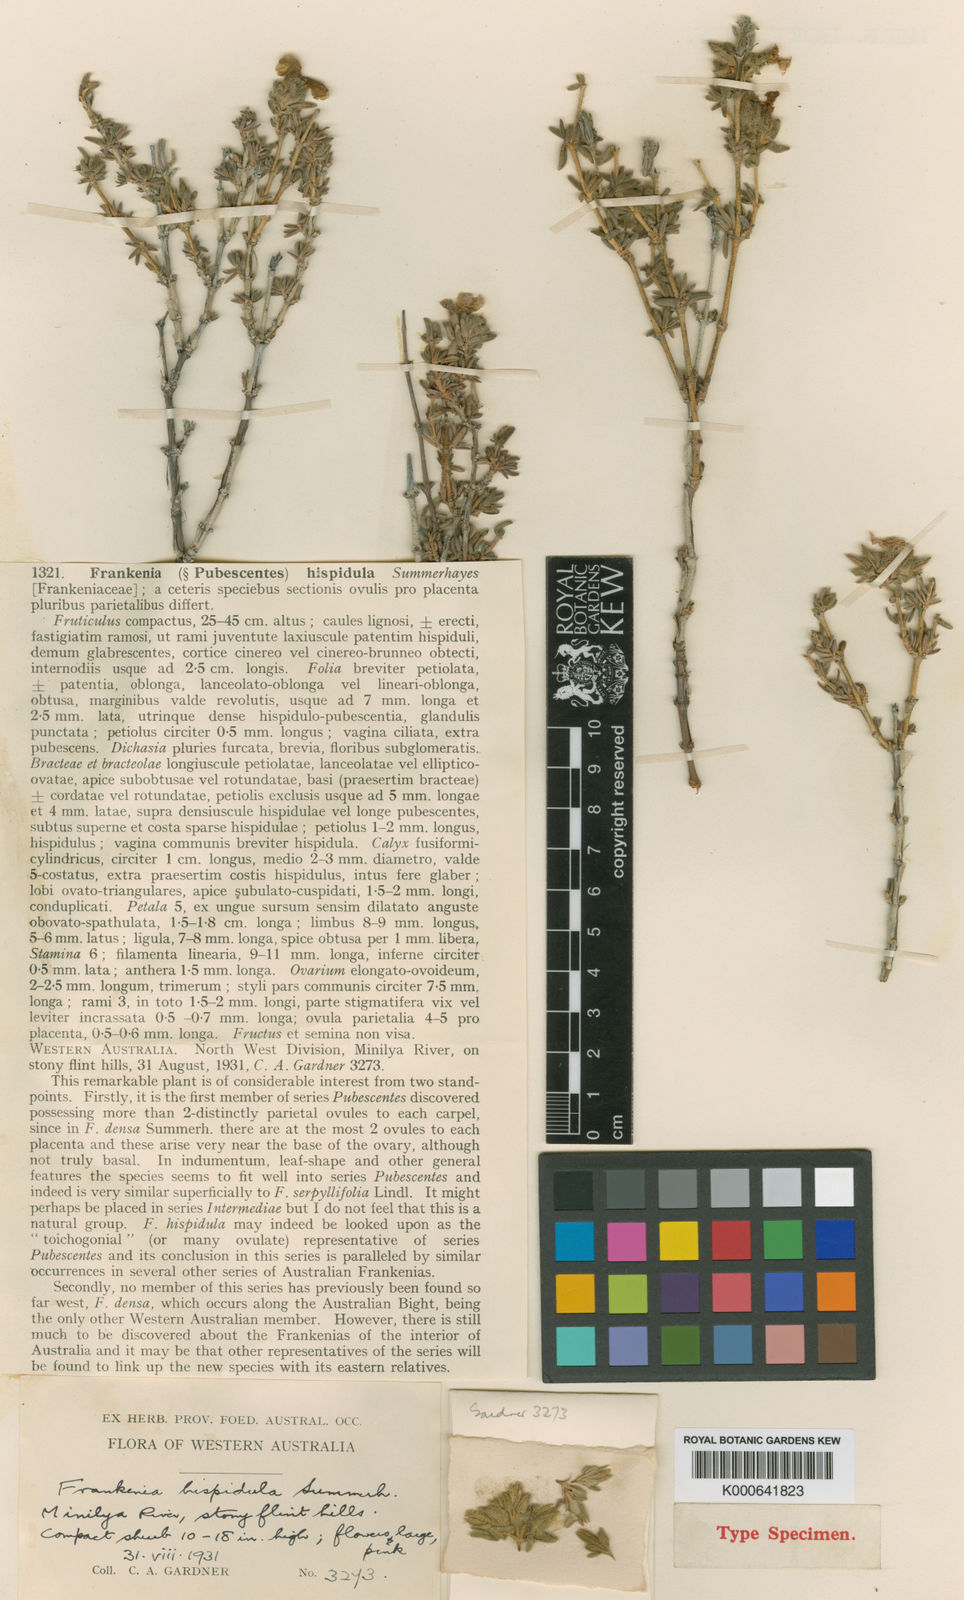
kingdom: Plantae
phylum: Tracheophyta
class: Magnoliopsida
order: Caryophyllales
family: Frankeniaceae
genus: Frankenia
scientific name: Frankenia hispidula
